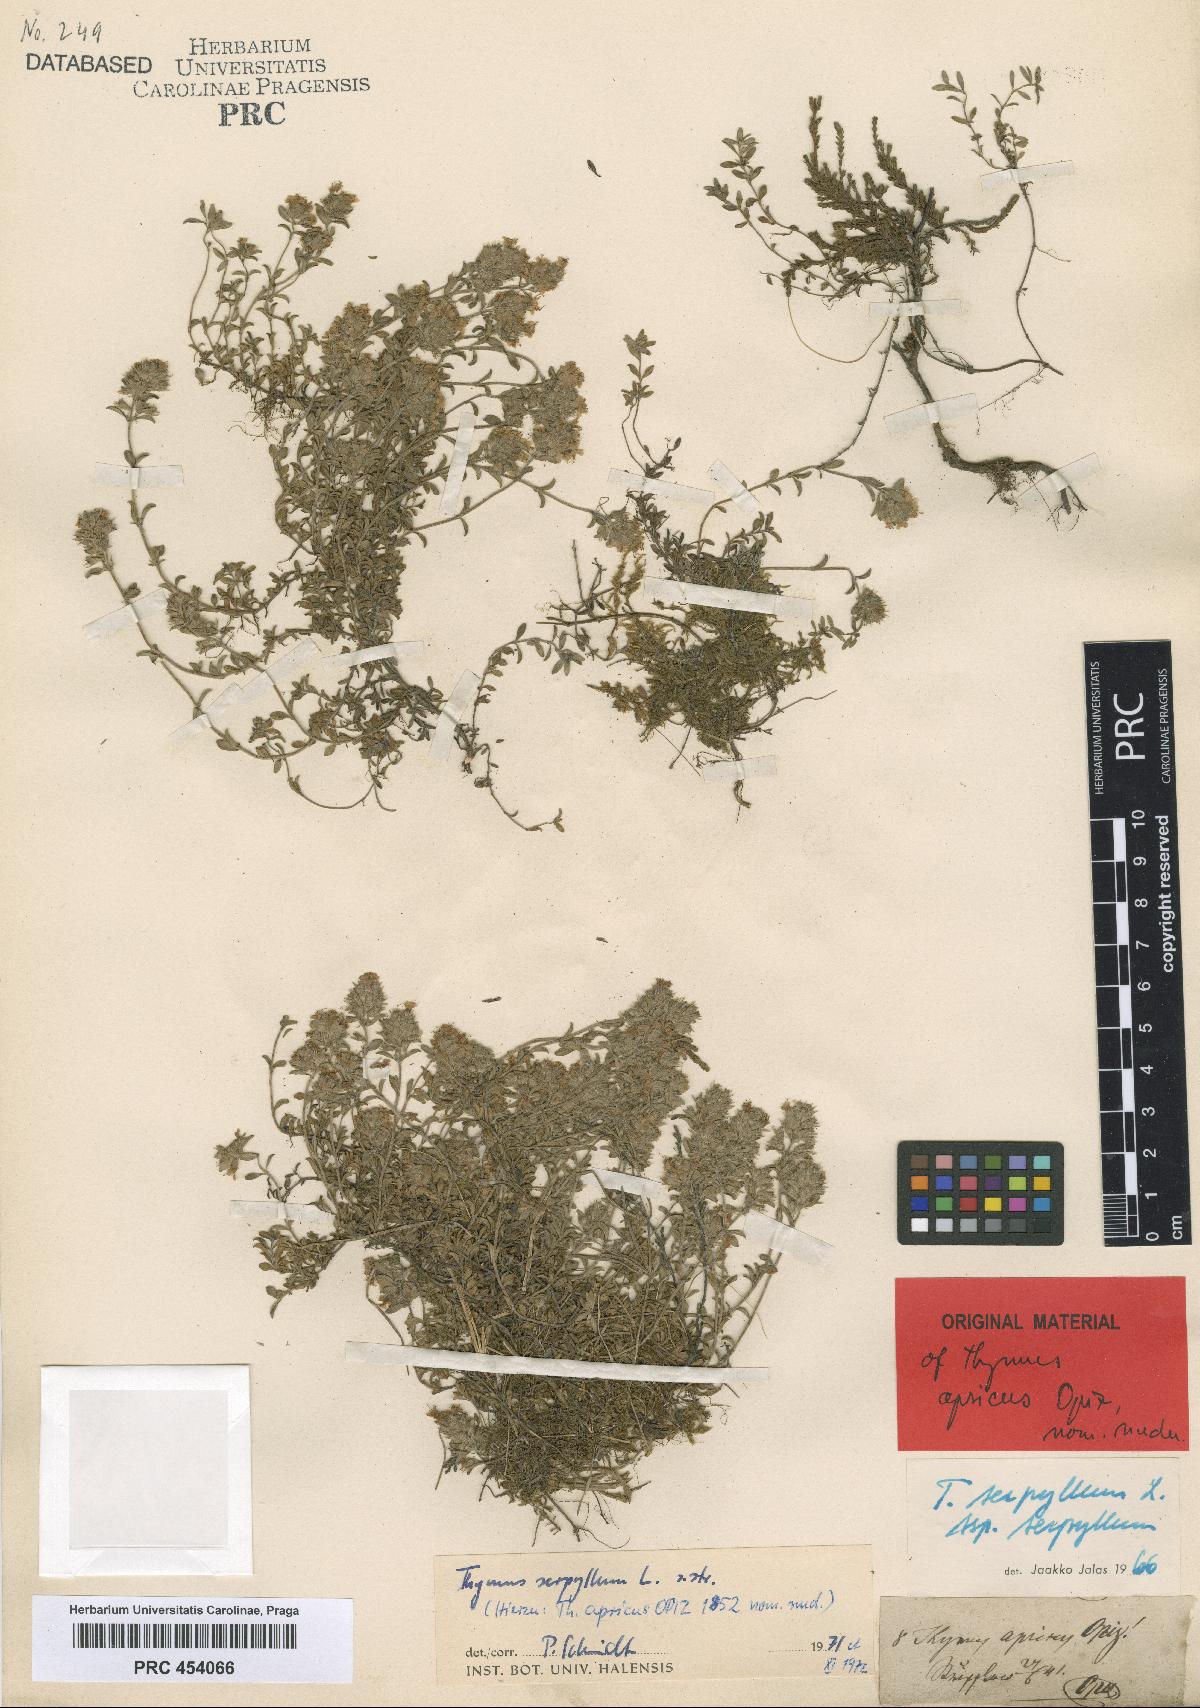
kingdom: Plantae
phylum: Tracheophyta
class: Magnoliopsida
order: Lamiales
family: Lamiaceae
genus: Thymus
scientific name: Thymus serpyllum
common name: Breckland thyme
